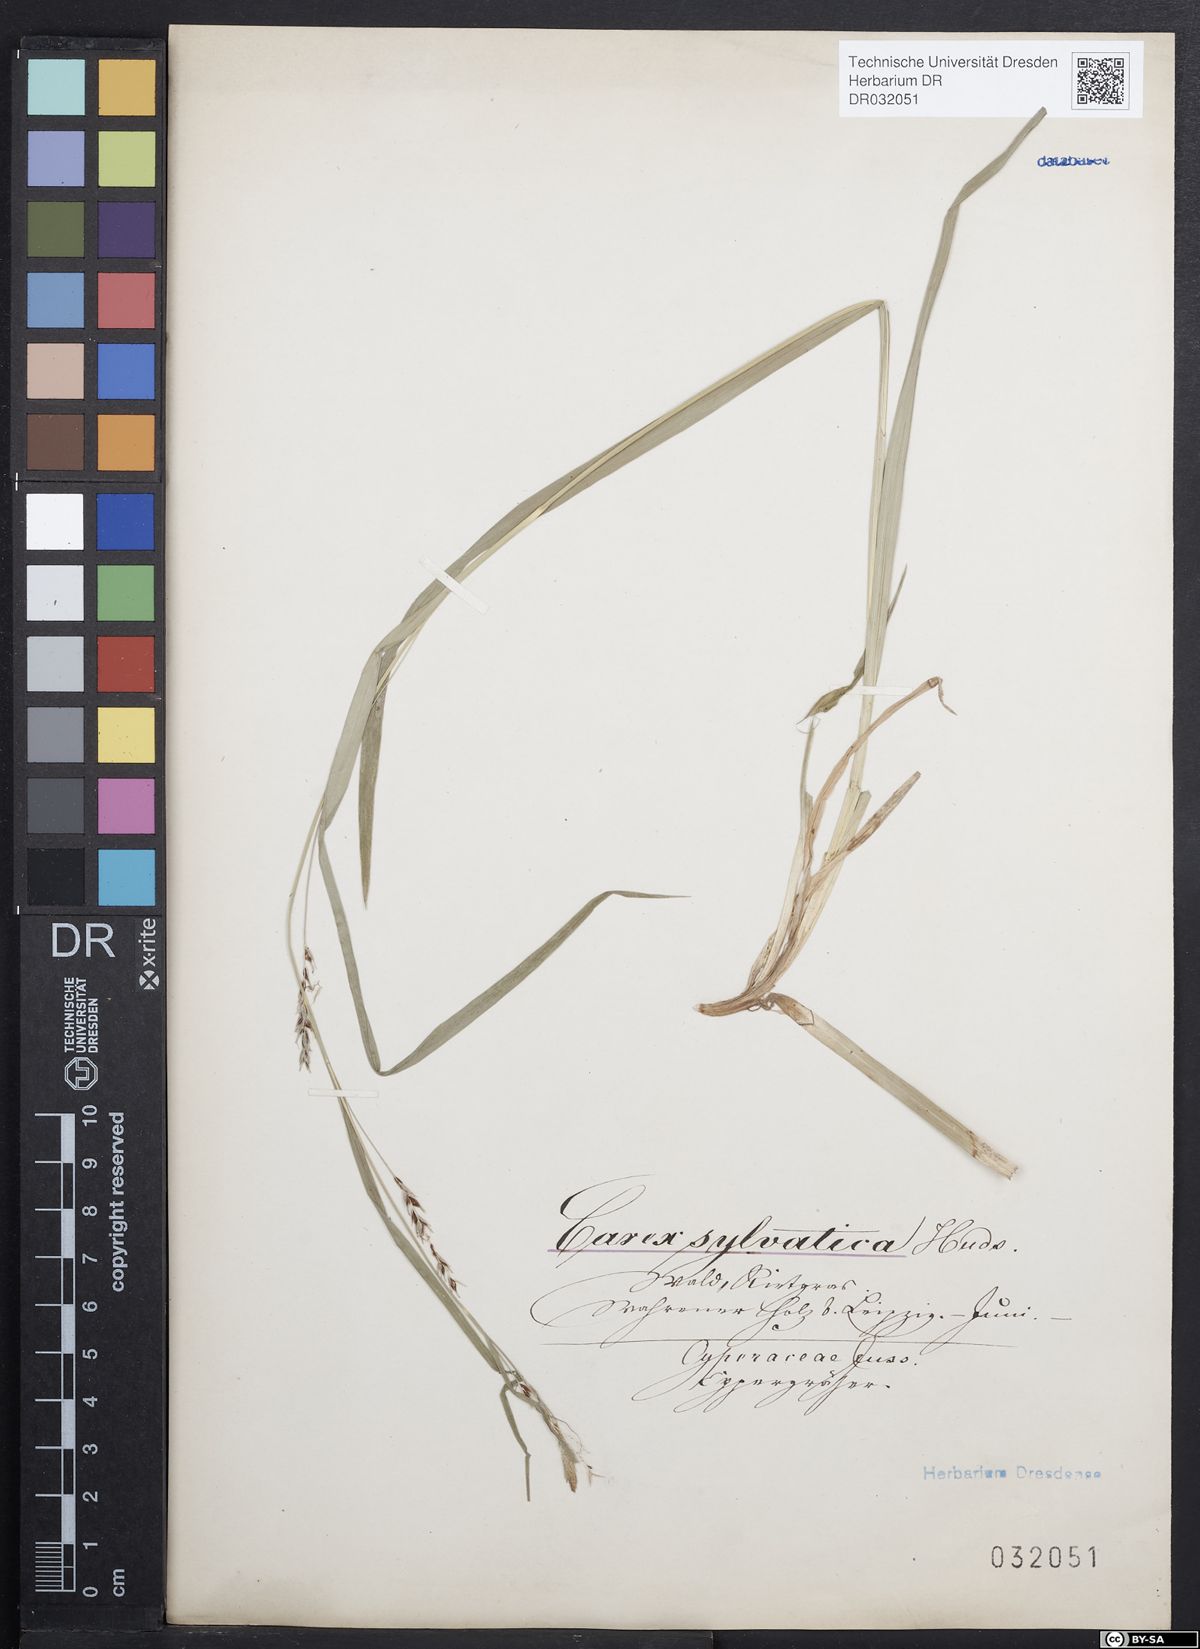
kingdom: Plantae
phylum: Tracheophyta
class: Liliopsida
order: Poales
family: Cyperaceae
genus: Carex
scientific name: Carex sylvatica
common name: Wood-sedge
